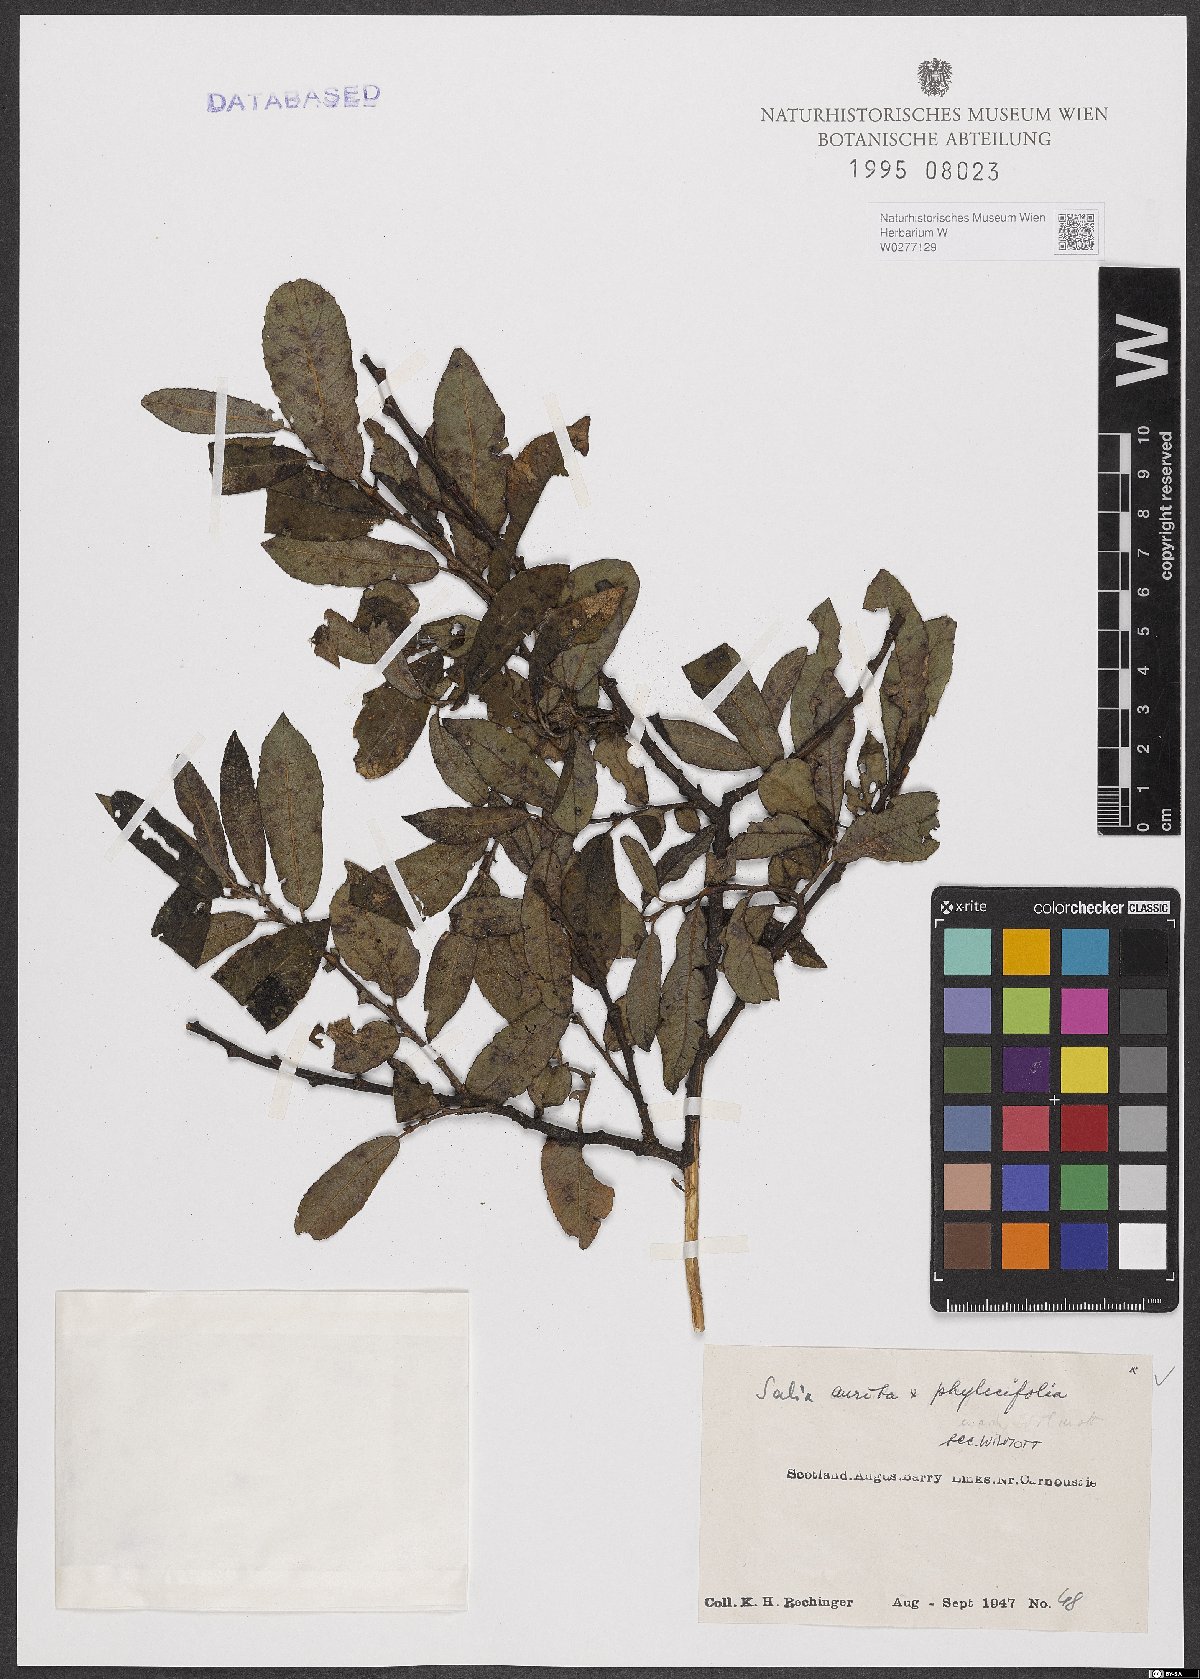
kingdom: Plantae
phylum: Tracheophyta
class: Magnoliopsida
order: Malpighiales
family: Salicaceae
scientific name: Salicaceae
